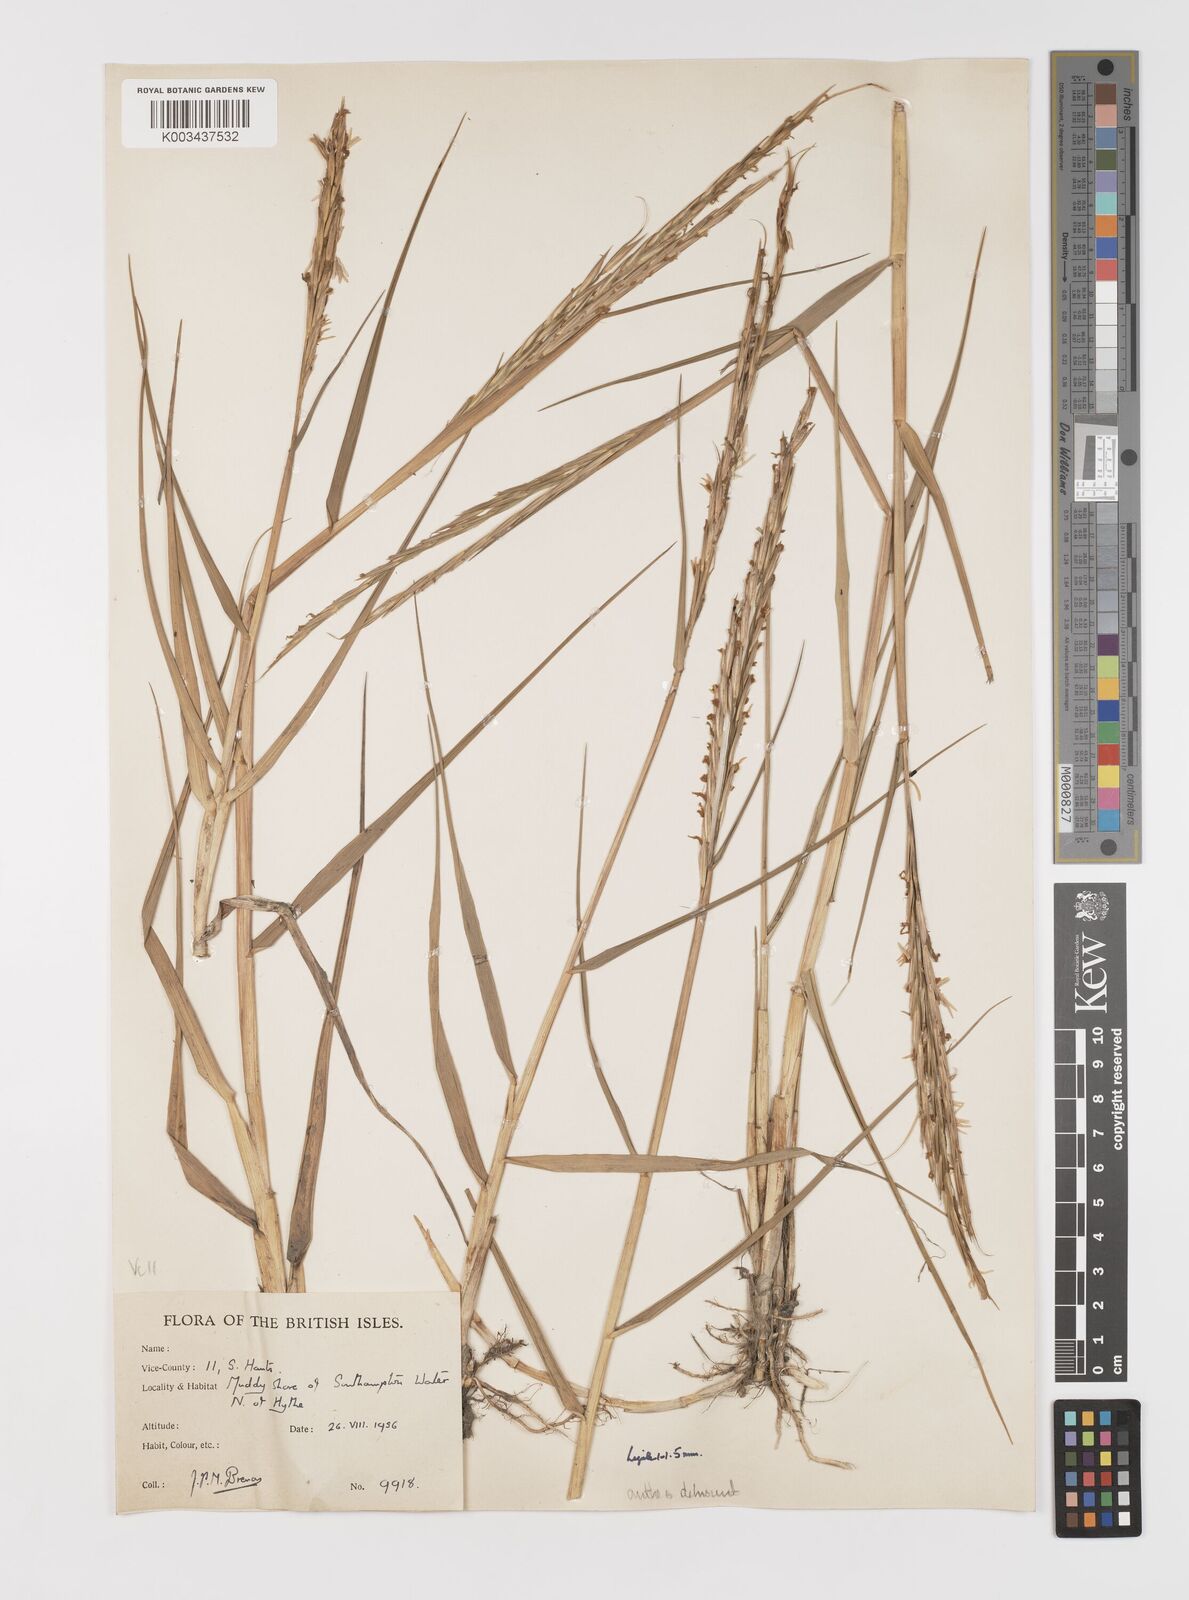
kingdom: Plantae
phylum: Tracheophyta
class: Liliopsida
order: Poales
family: Poaceae
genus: Sporobolus
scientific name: Sporobolus anglicus
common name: English cordgrass
